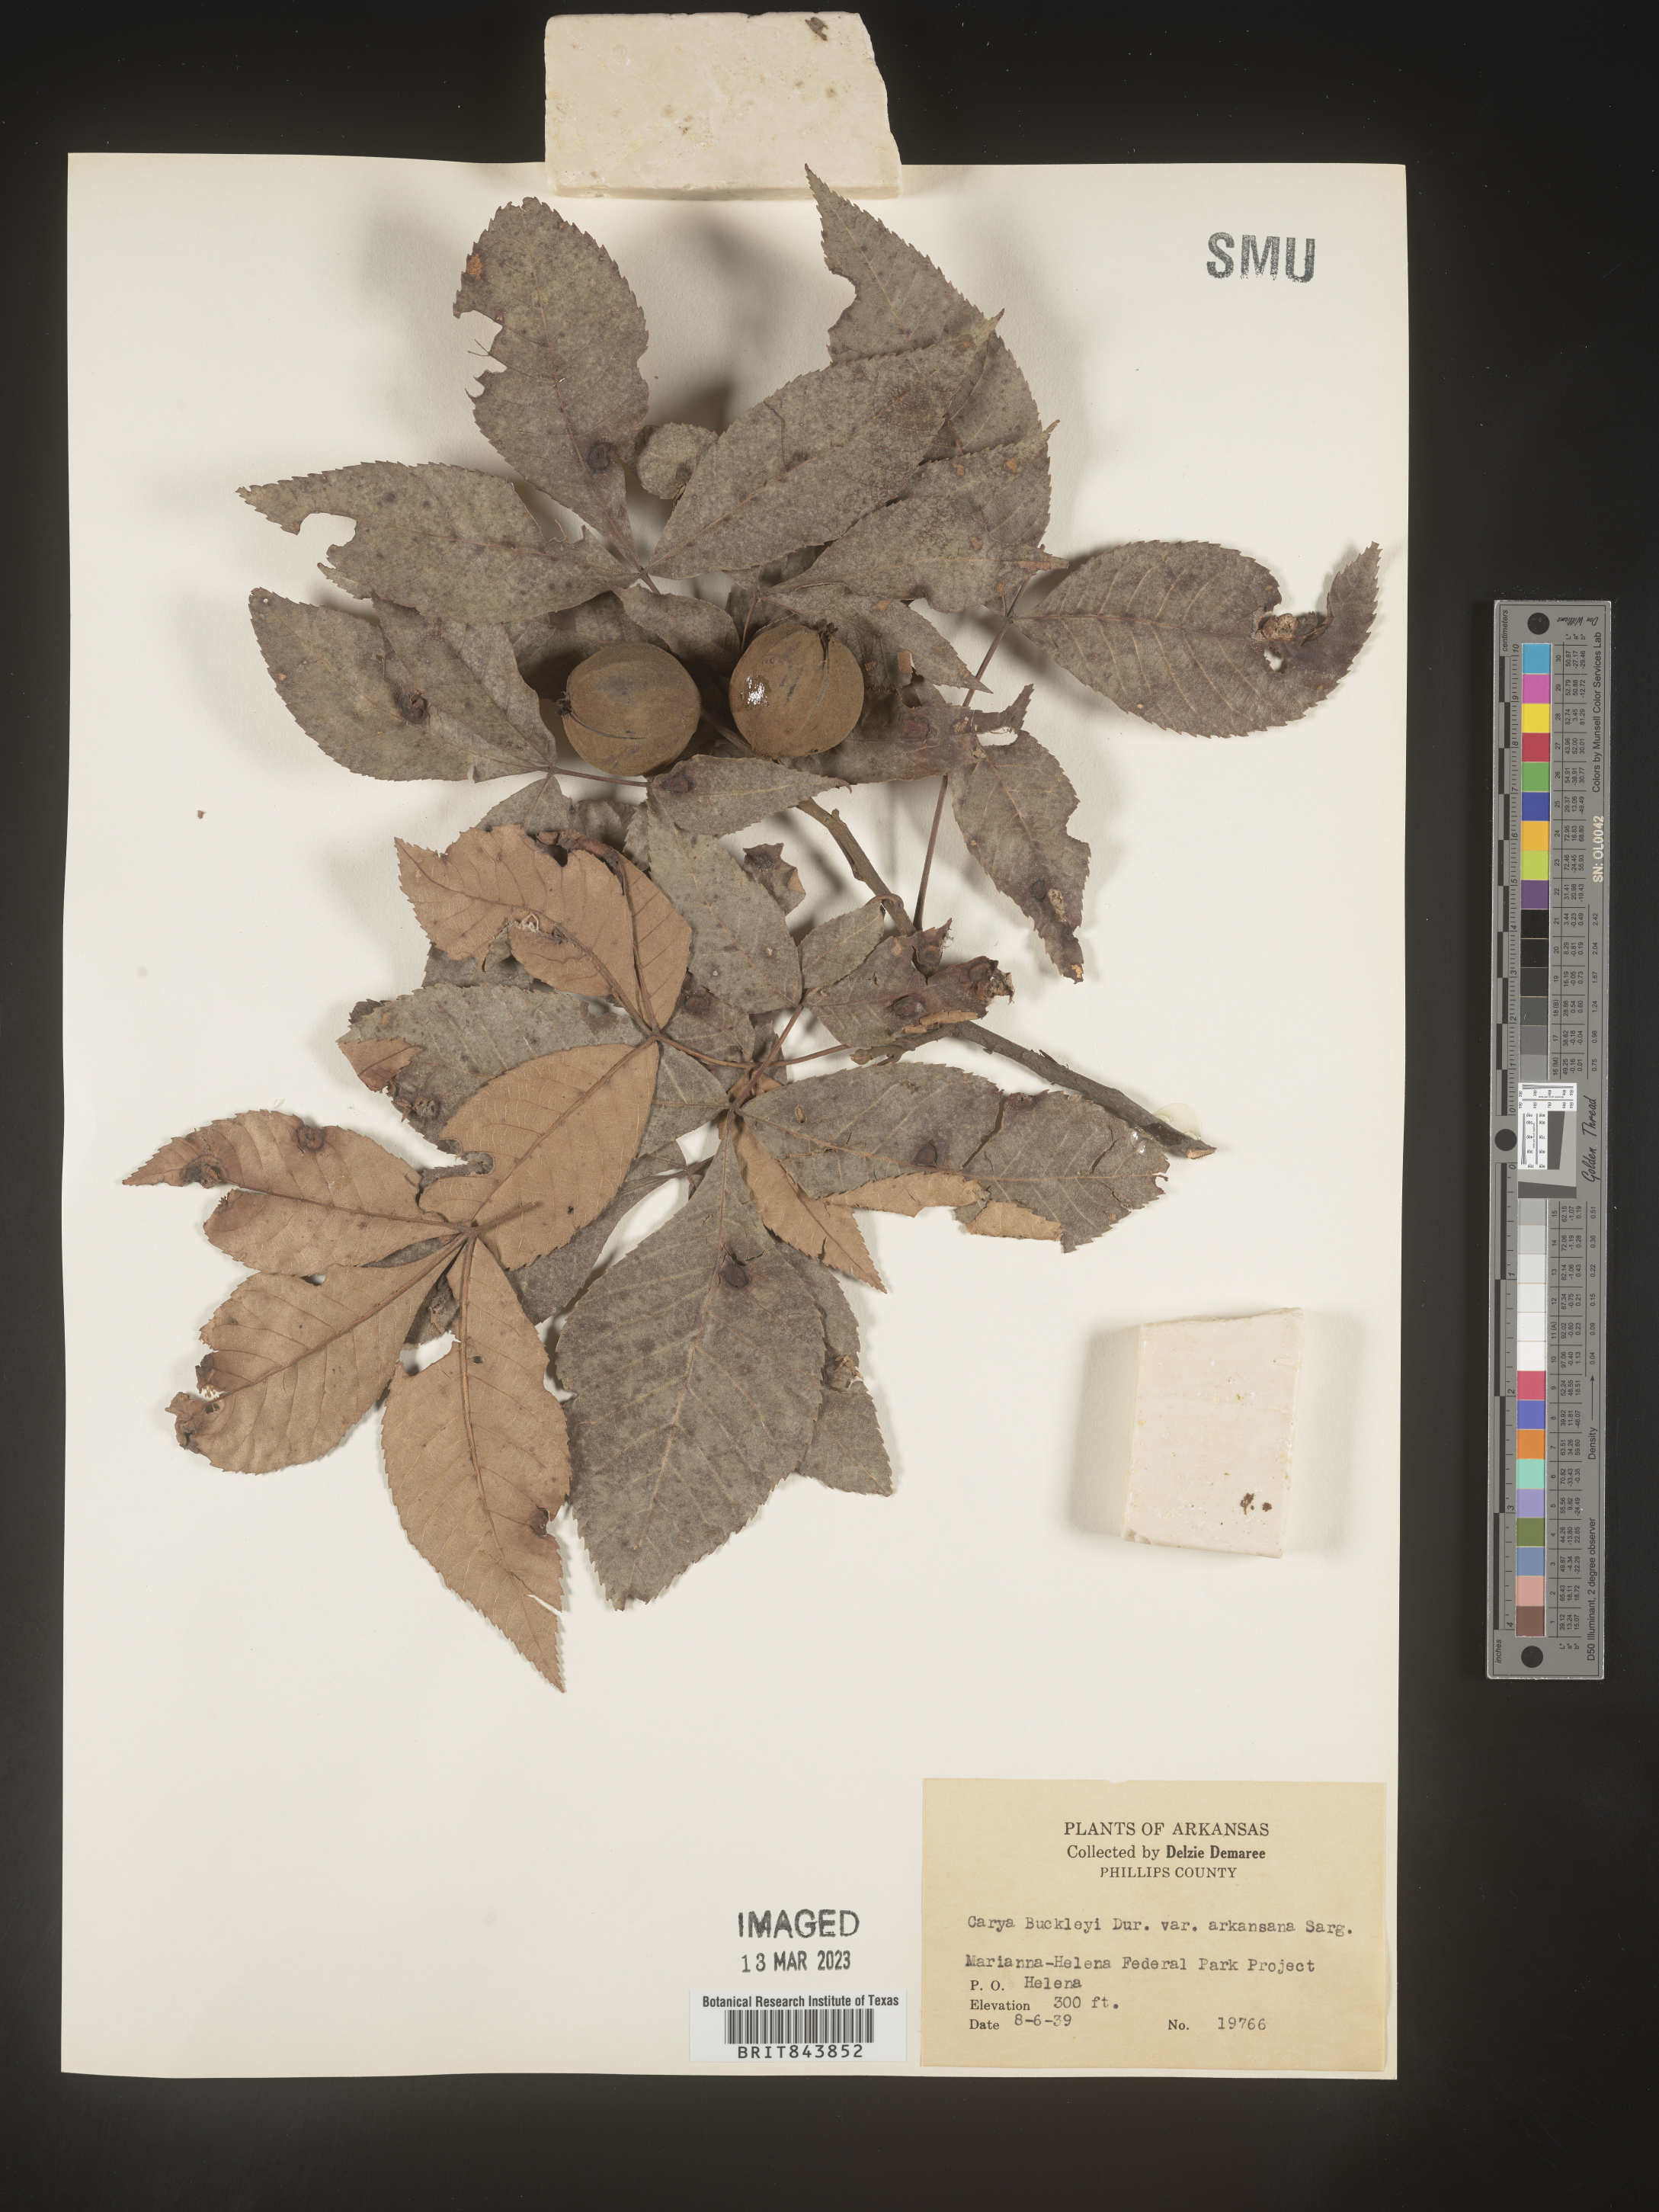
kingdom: Plantae
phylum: Tracheophyta
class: Magnoliopsida
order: Fagales
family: Juglandaceae
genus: Carya
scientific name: Carya texana
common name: Black hickory
